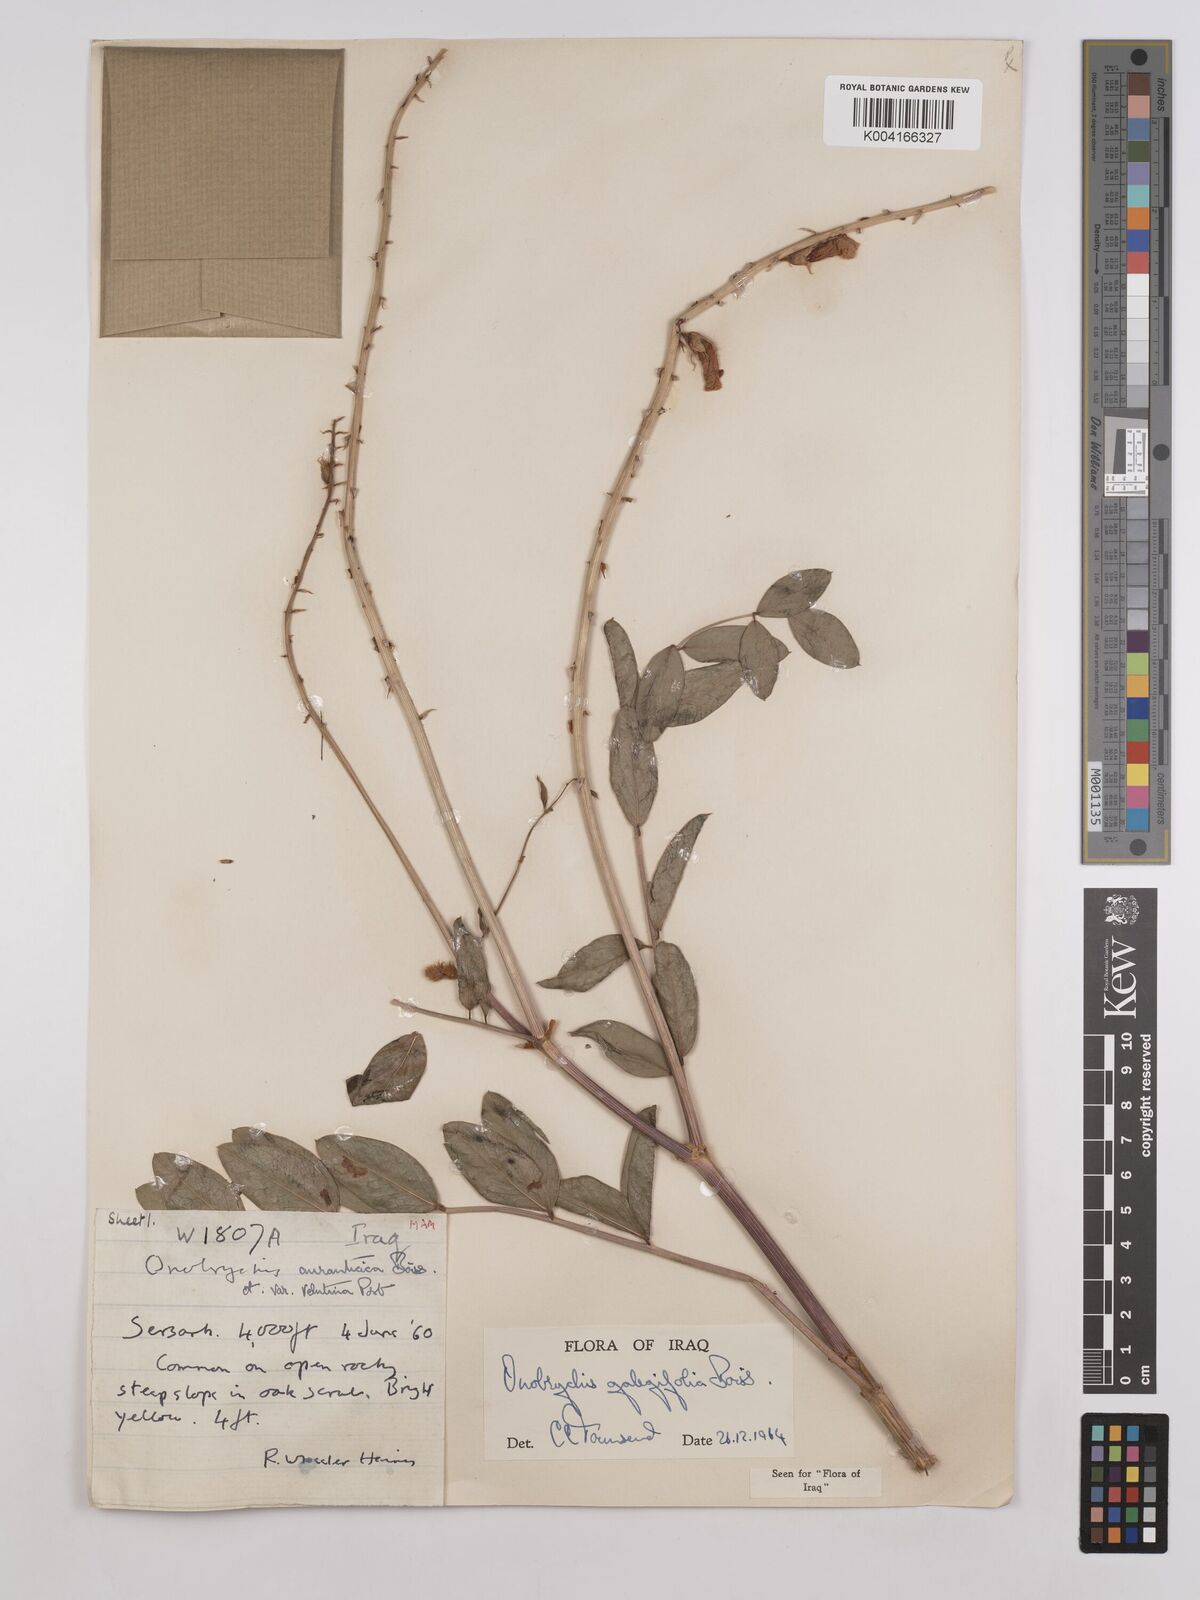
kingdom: Plantae
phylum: Tracheophyta
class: Magnoliopsida
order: Fabales
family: Fabaceae
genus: Onobrychis
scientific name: Onobrychis galegifolia
